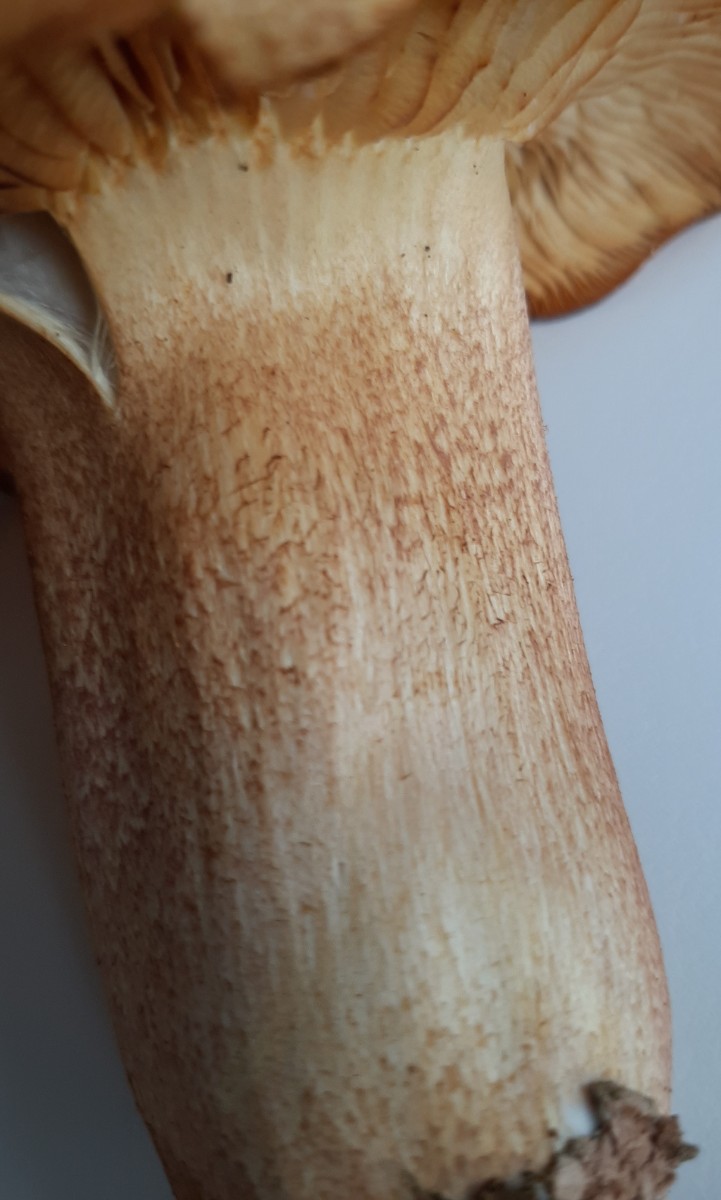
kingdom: Fungi
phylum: Basidiomycota
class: Agaricomycetes
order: Agaricales
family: Tricholomataceae
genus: Tricholomopsis
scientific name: Tricholomopsis rutilans
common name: purpur-væbnerhat
